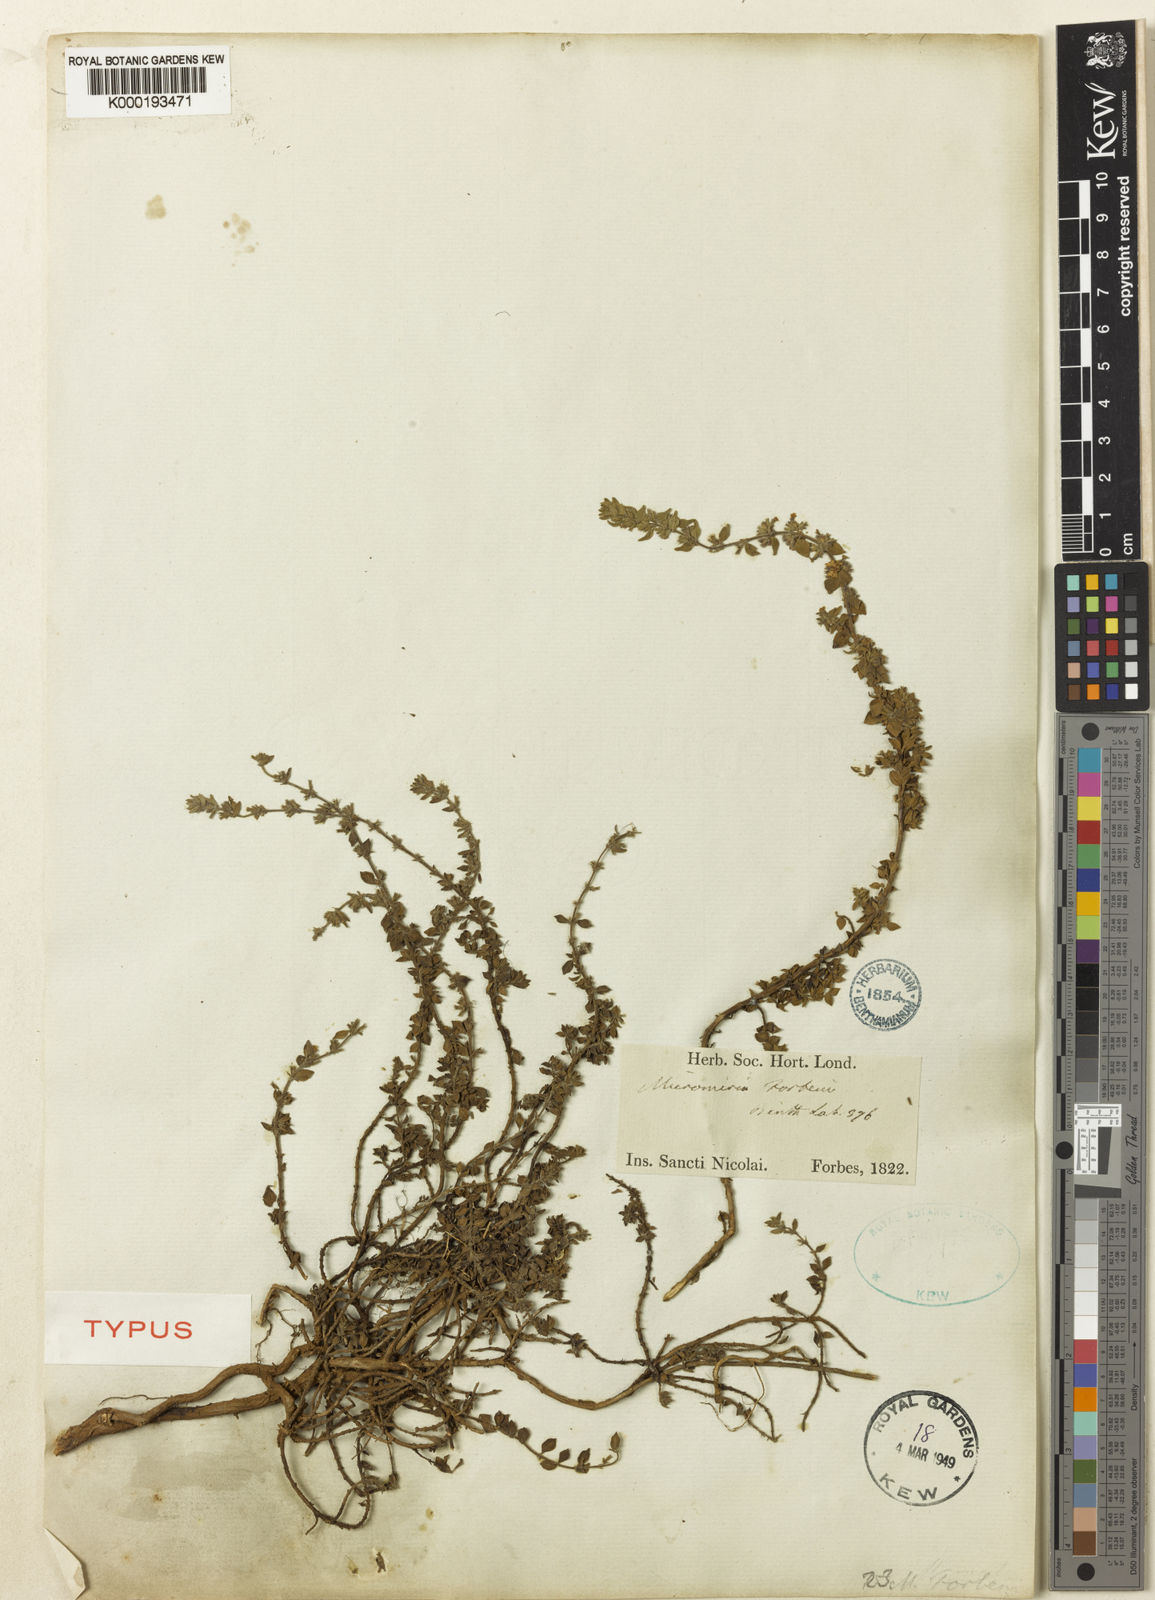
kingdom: Plantae
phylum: Tracheophyta
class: Magnoliopsida
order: Lamiales
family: Lamiaceae
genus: Micromeria
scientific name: Micromeria forbesii
